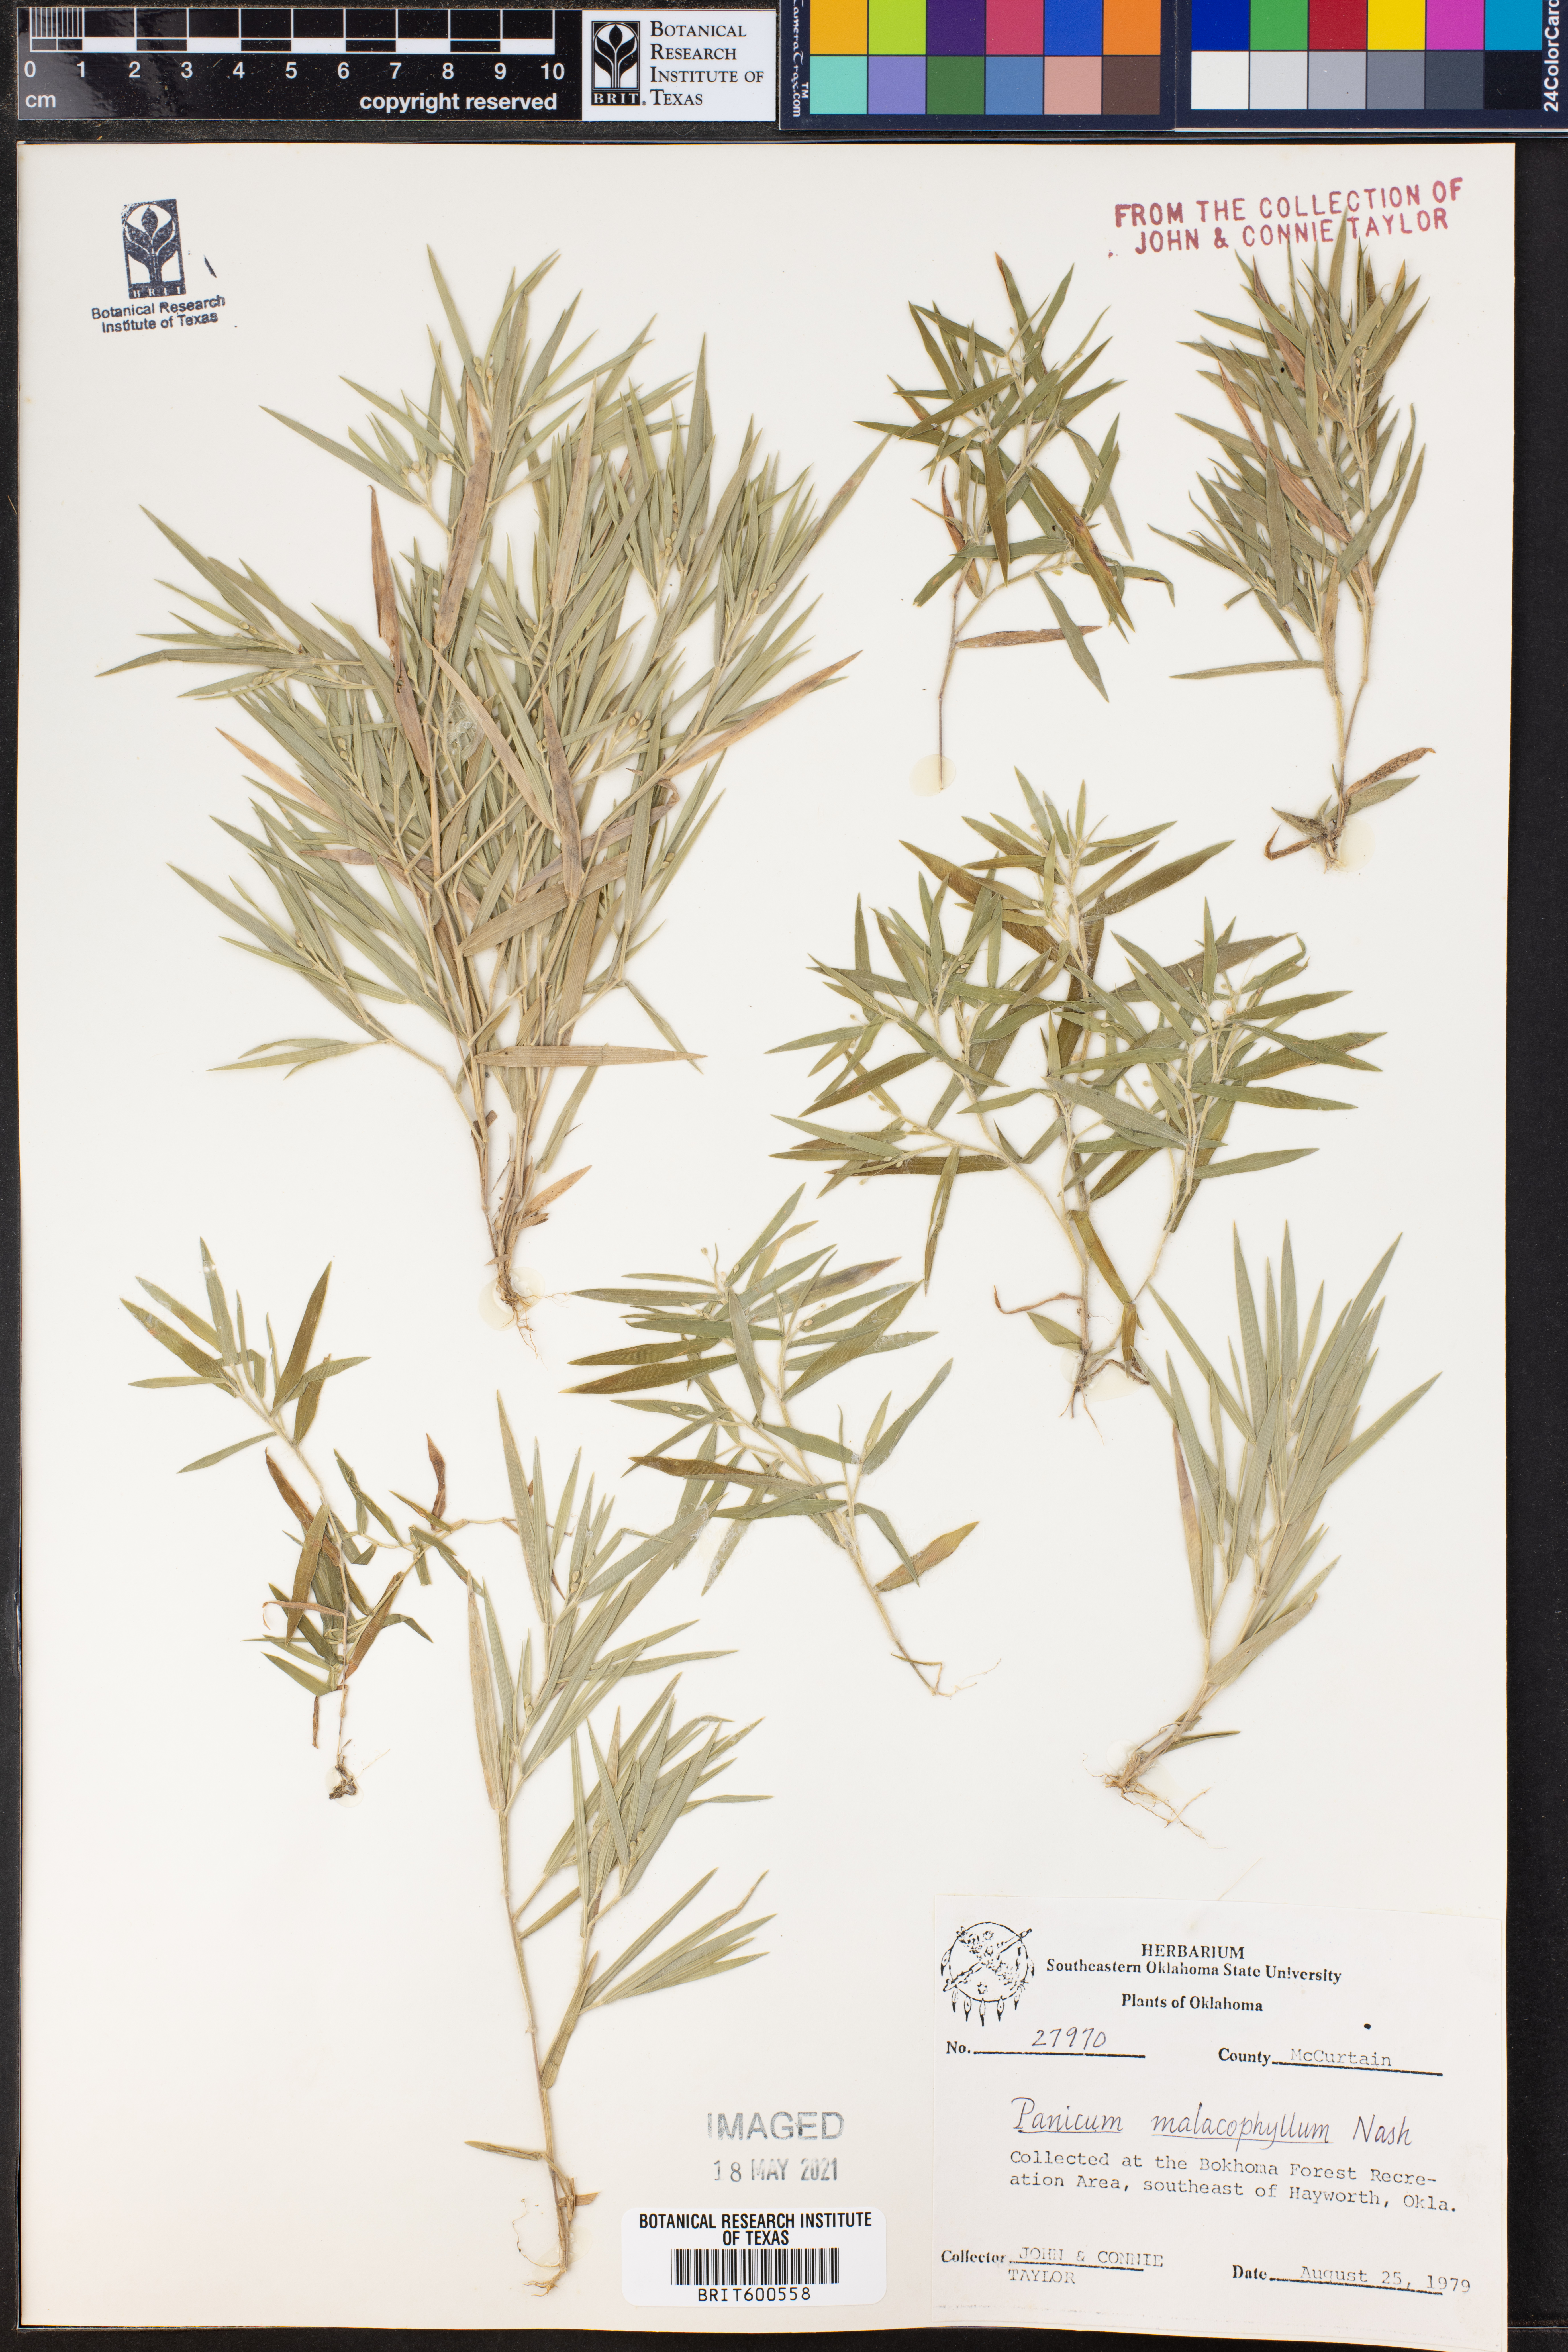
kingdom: Plantae
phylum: Tracheophyta
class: Liliopsida
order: Poales
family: Poaceae
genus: Dichanthelium
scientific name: Dichanthelium malacophyllum
